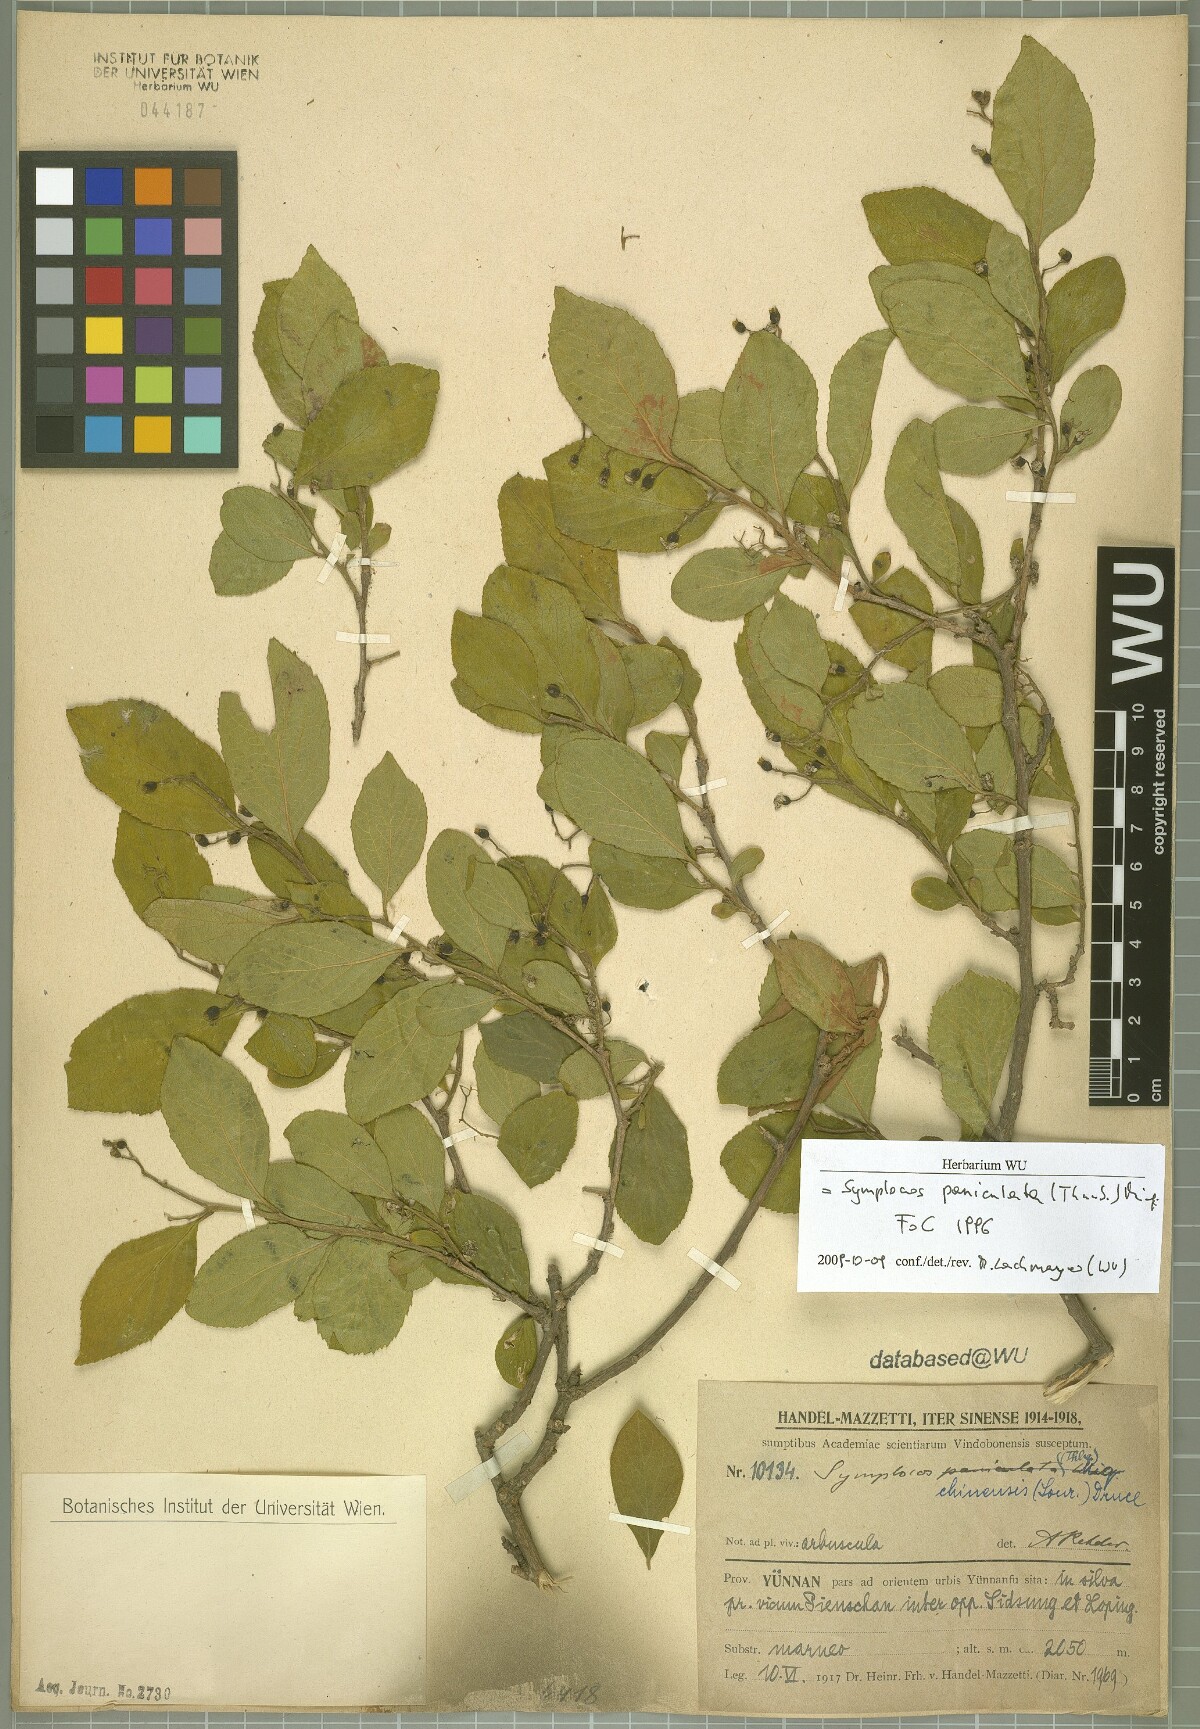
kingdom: Plantae
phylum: Tracheophyta
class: Magnoliopsida
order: Ericales
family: Symplocaceae
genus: Symplocos
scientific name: Symplocos paniculata
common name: Sapphire-berry
